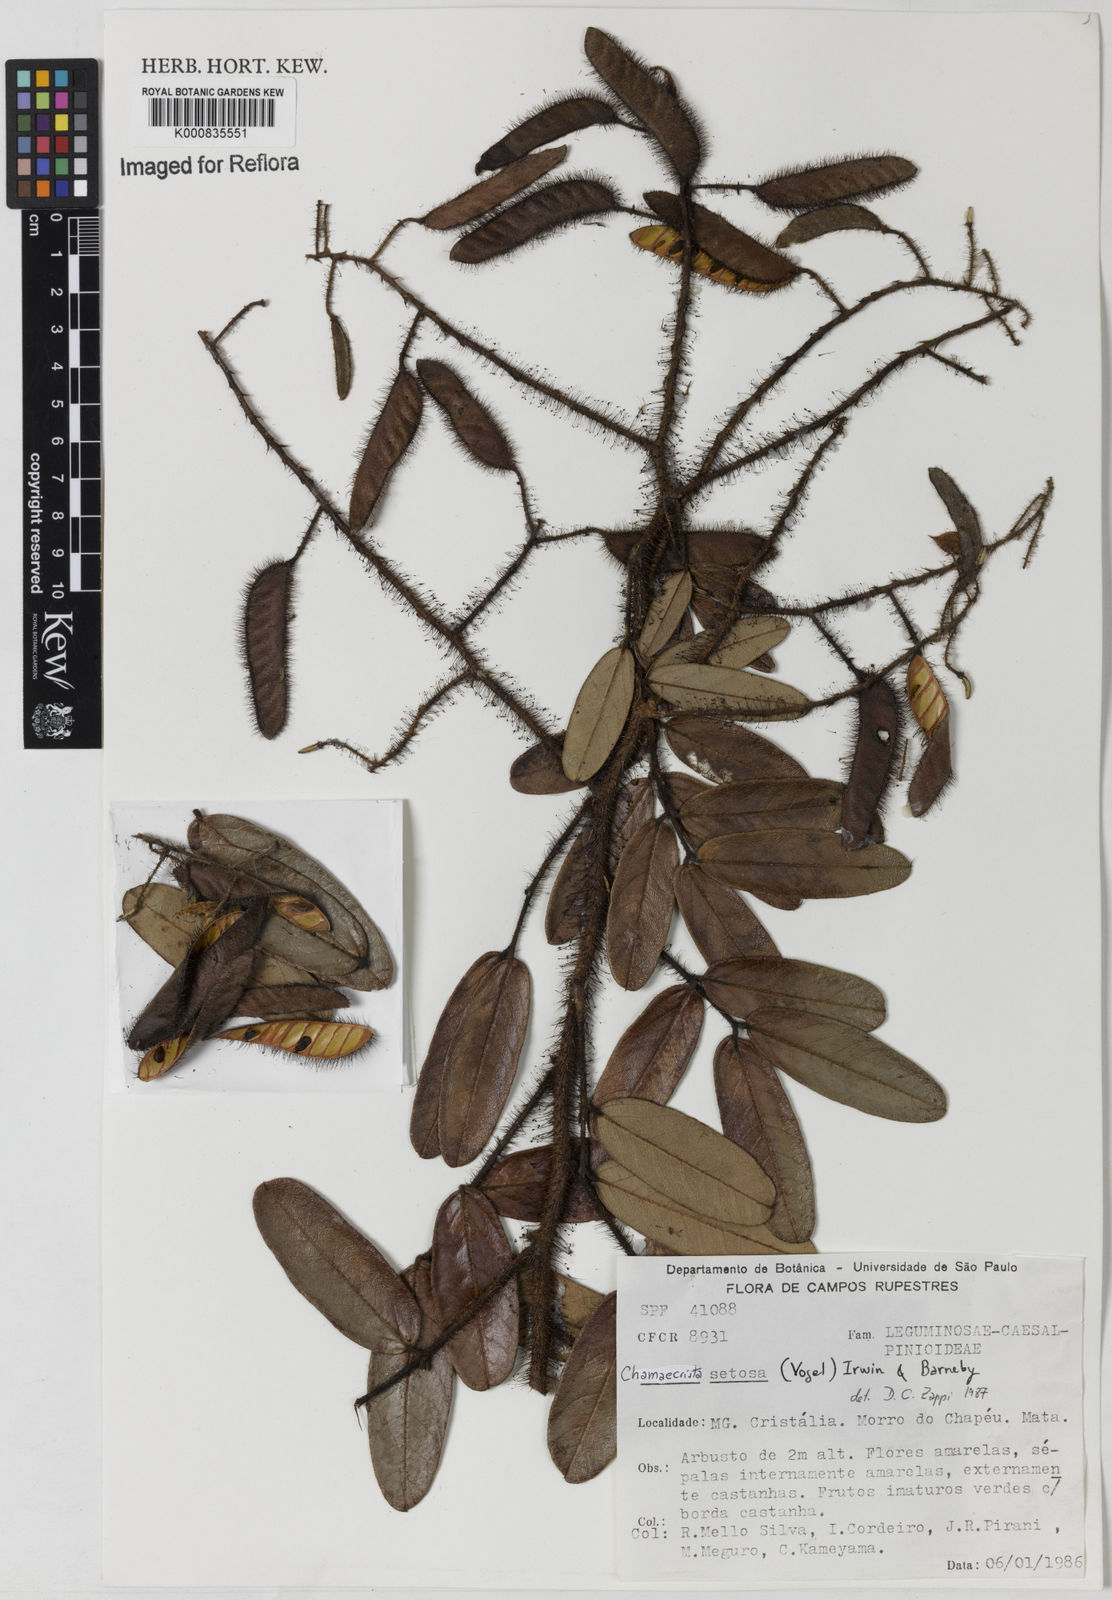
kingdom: Plantae
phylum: Tracheophyta
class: Magnoliopsida
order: Fabales
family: Fabaceae
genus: Chamaecrista
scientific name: Chamaecrista setosa
